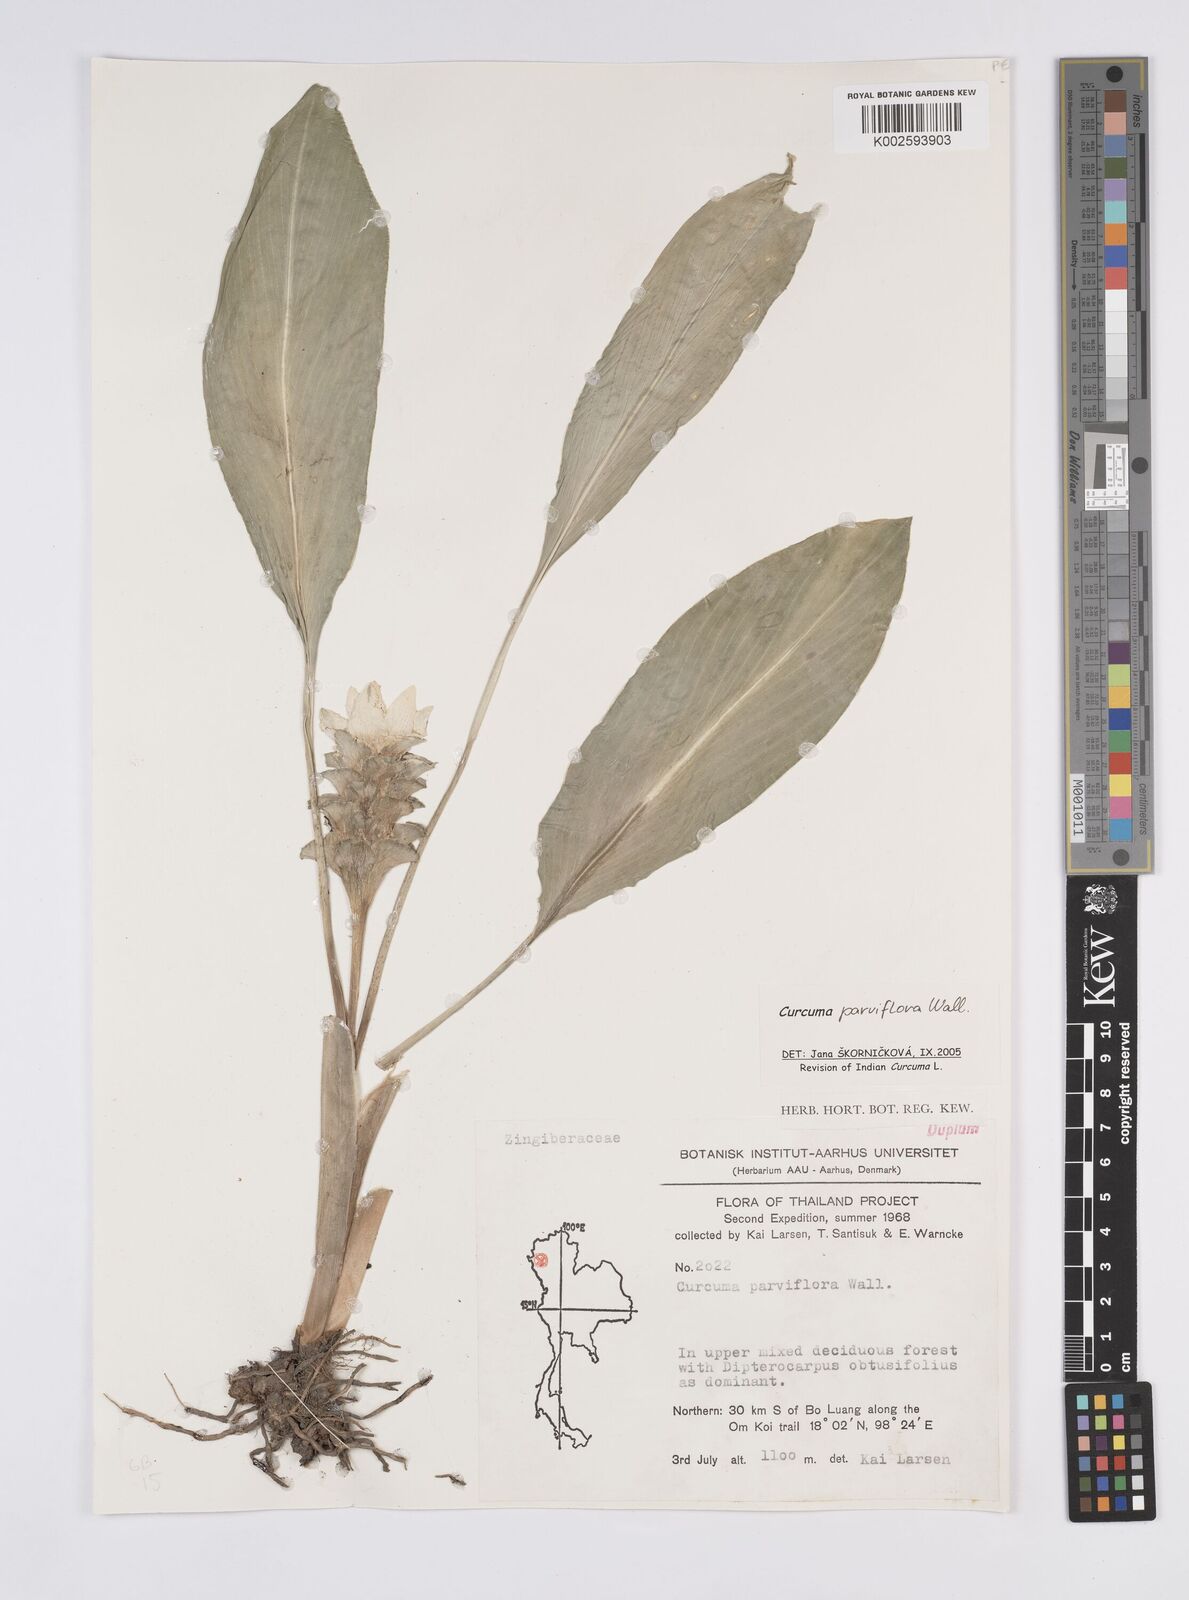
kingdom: Plantae
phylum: Tracheophyta
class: Liliopsida
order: Zingiberales
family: Zingiberaceae
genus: Curcuma
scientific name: Curcuma parviflora
